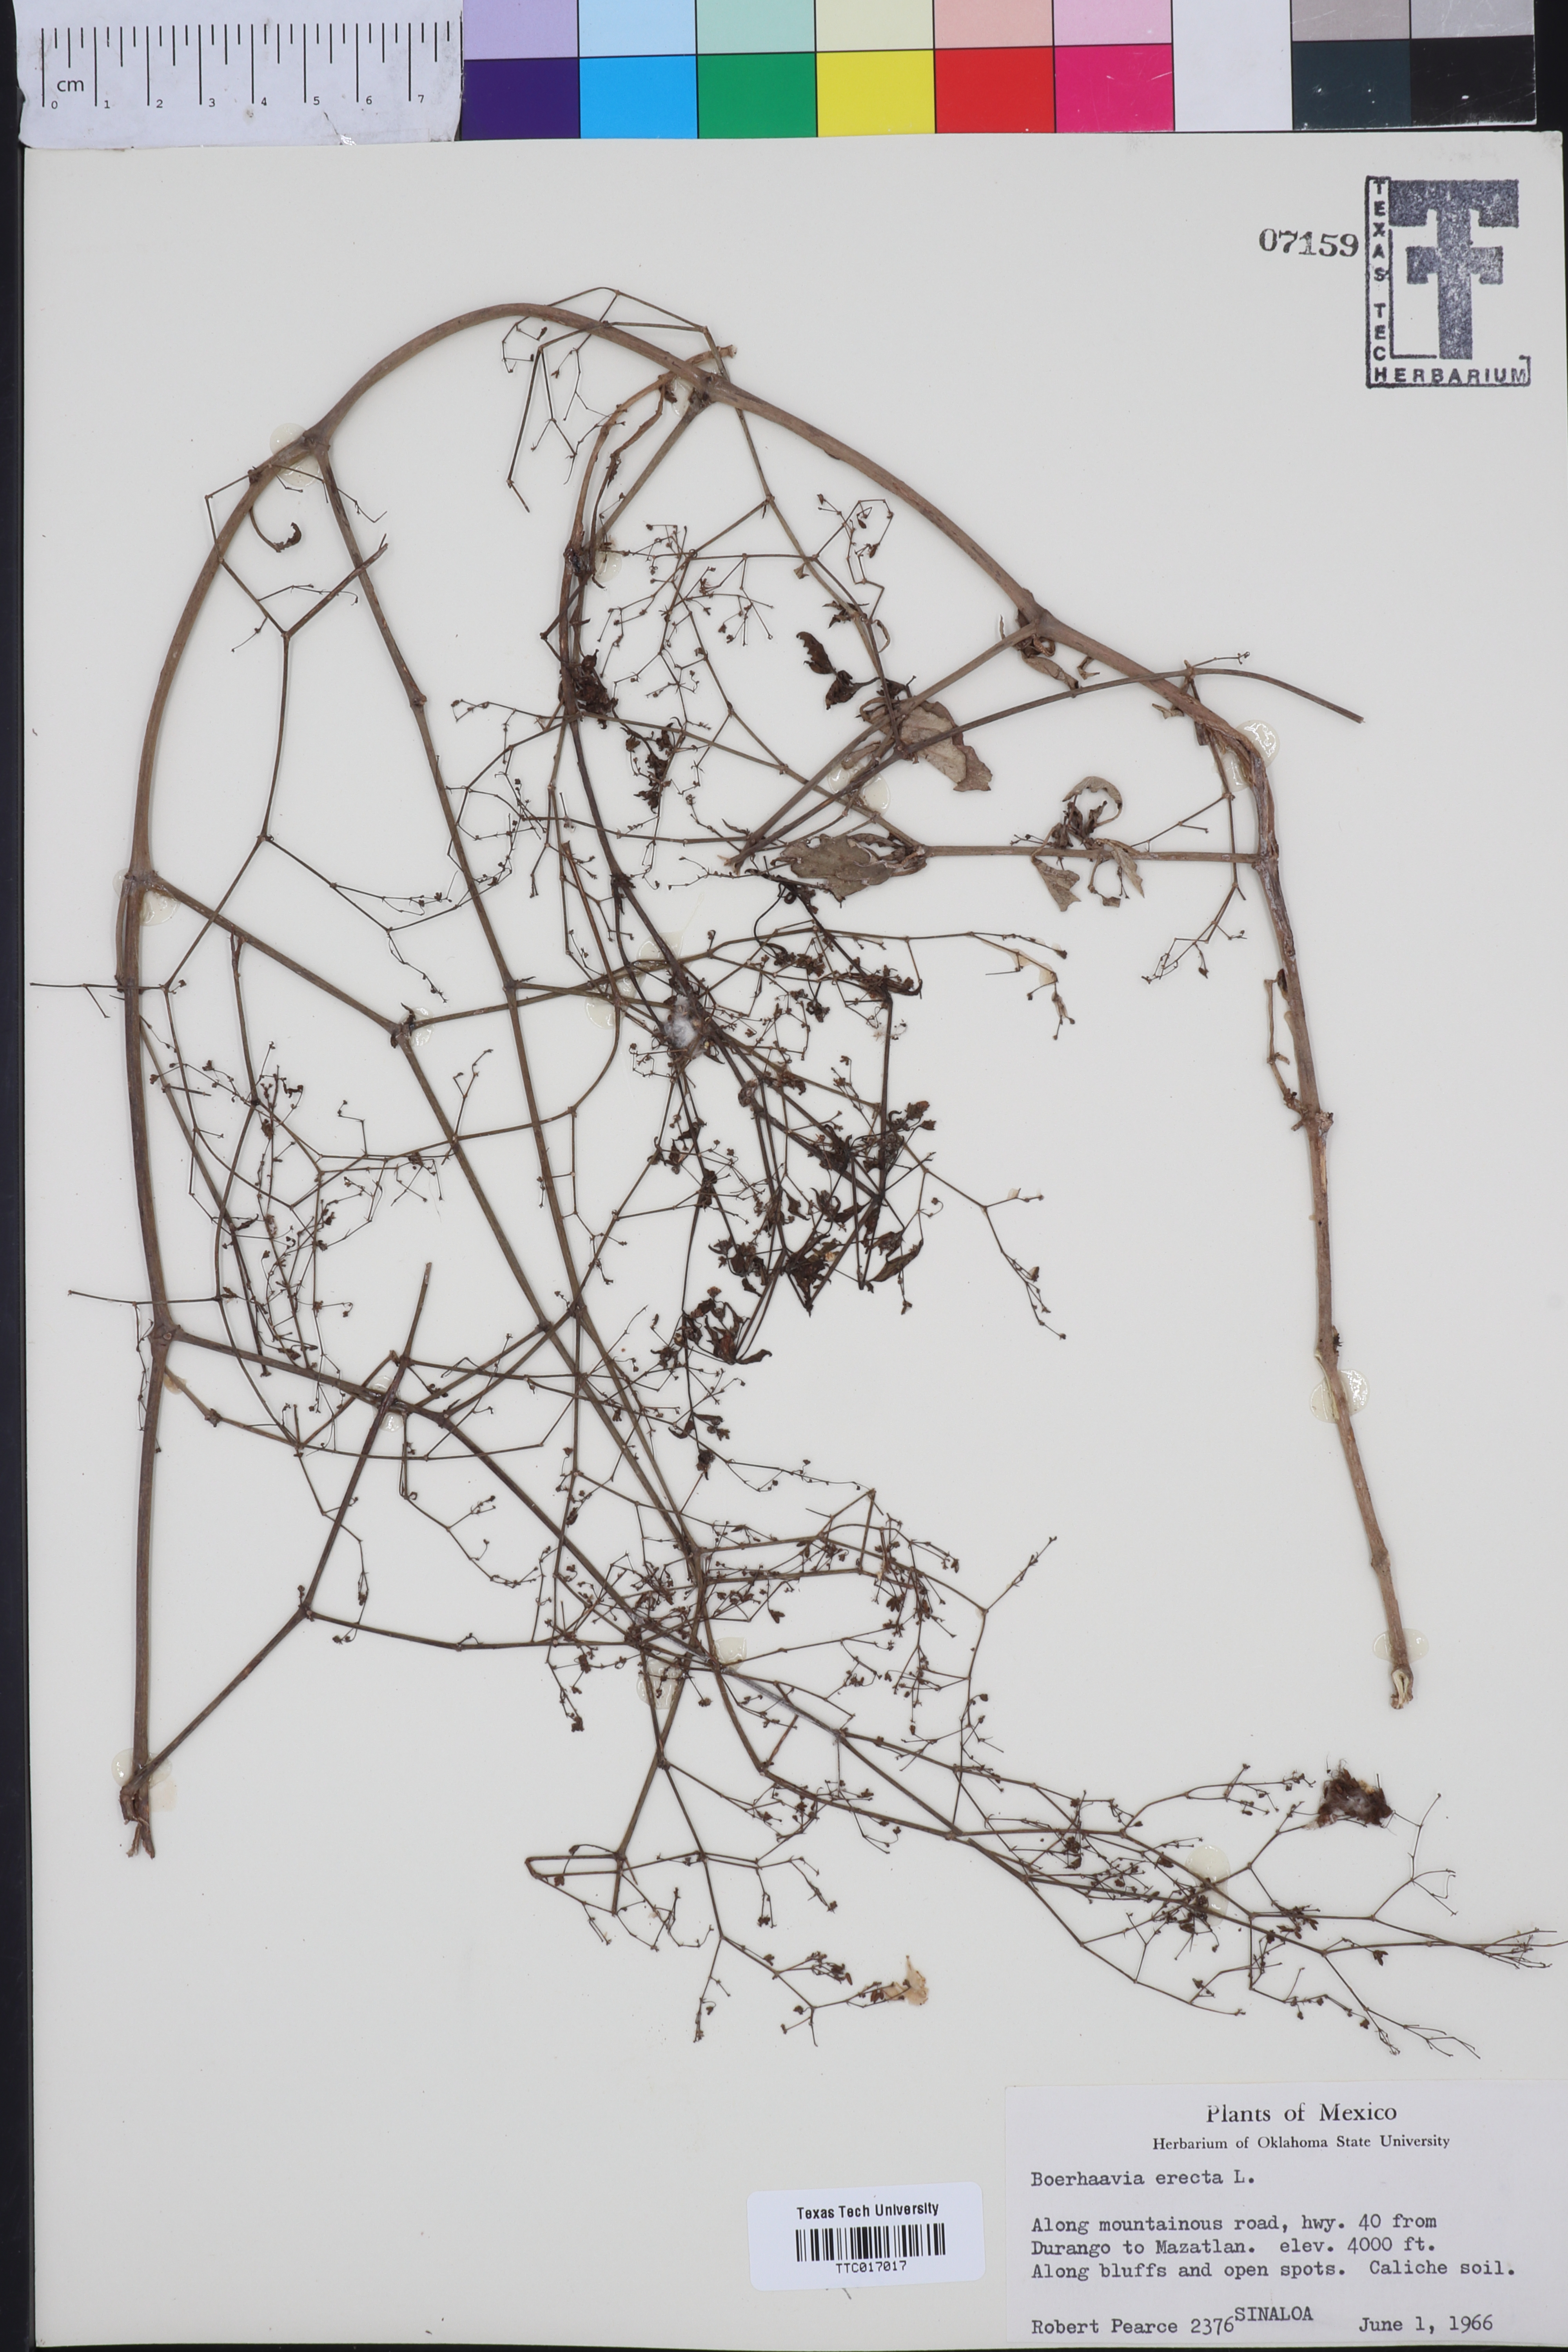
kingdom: Plantae
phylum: Tracheophyta
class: Magnoliopsida
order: Caryophyllales
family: Nyctaginaceae
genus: Boerhavia
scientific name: Boerhavia Boerhaavia erecta
